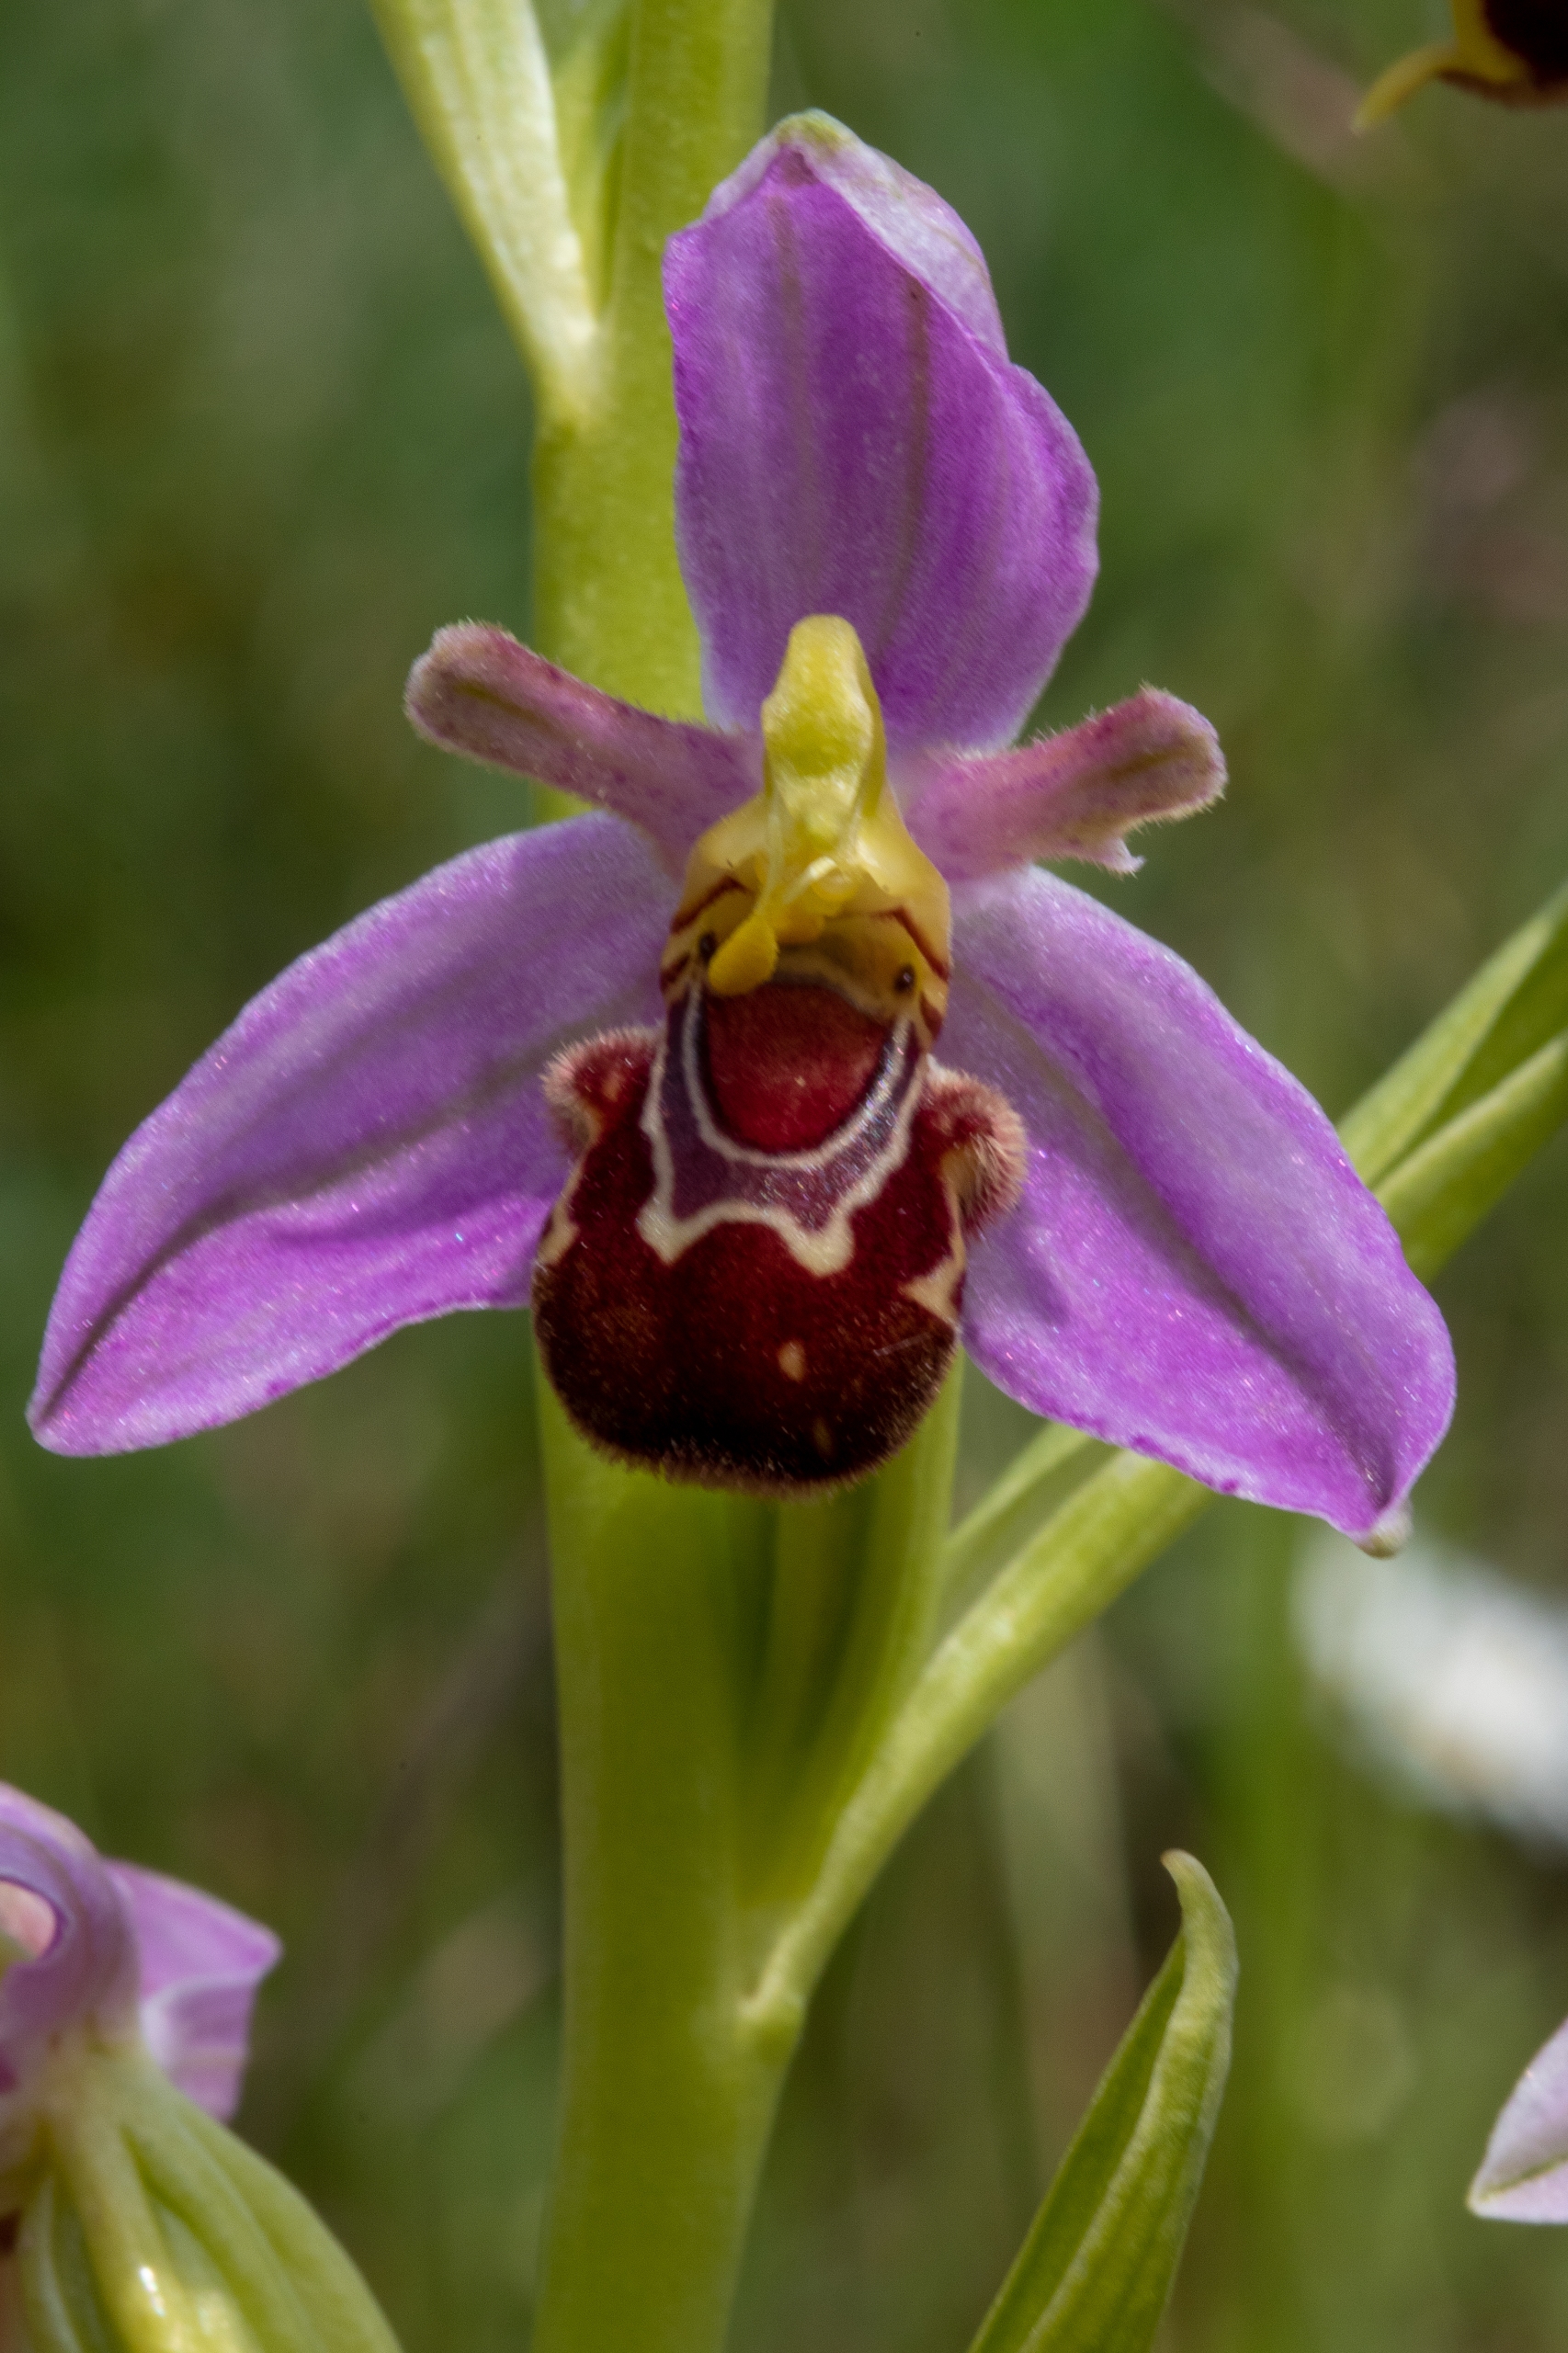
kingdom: Plantae
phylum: Tracheophyta
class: Liliopsida
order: Asparagales
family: Orchidaceae
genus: Ophrys
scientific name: Ophrys apifera
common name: Biblomst
